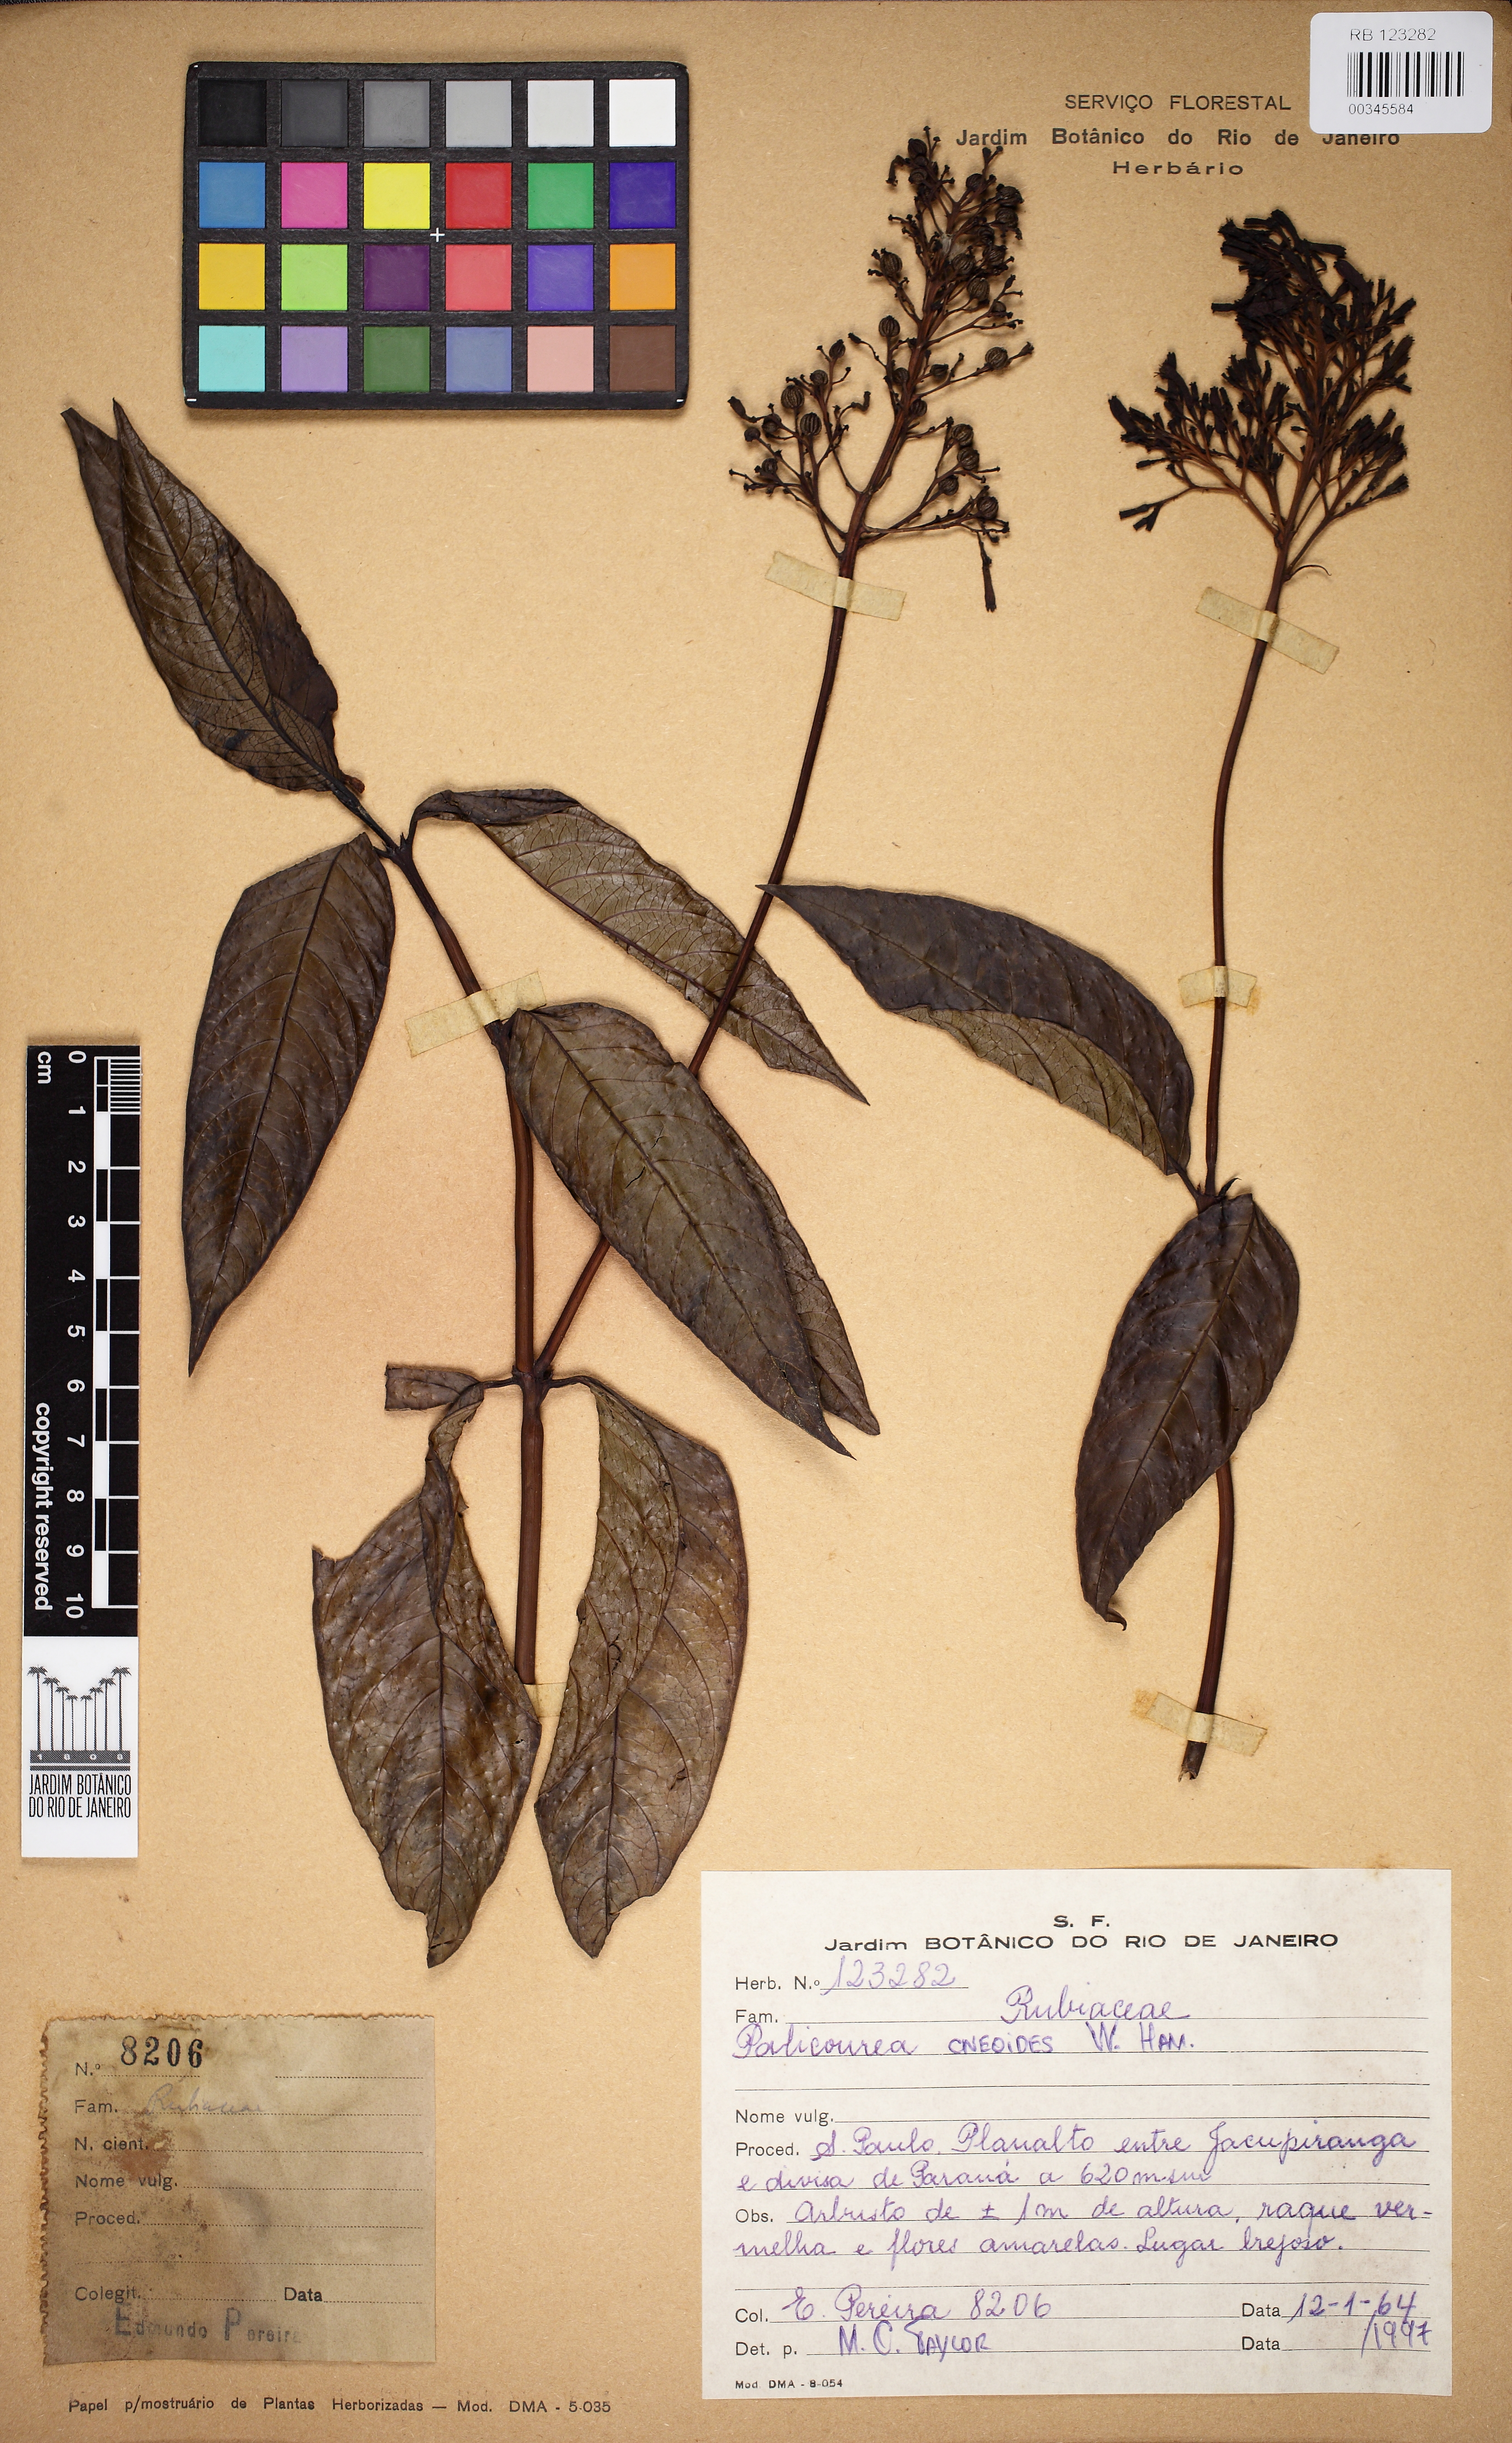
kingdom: Plantae
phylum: Tracheophyta
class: Magnoliopsida
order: Gentianales
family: Rubiaceae
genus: Palicourea
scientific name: Palicourea
